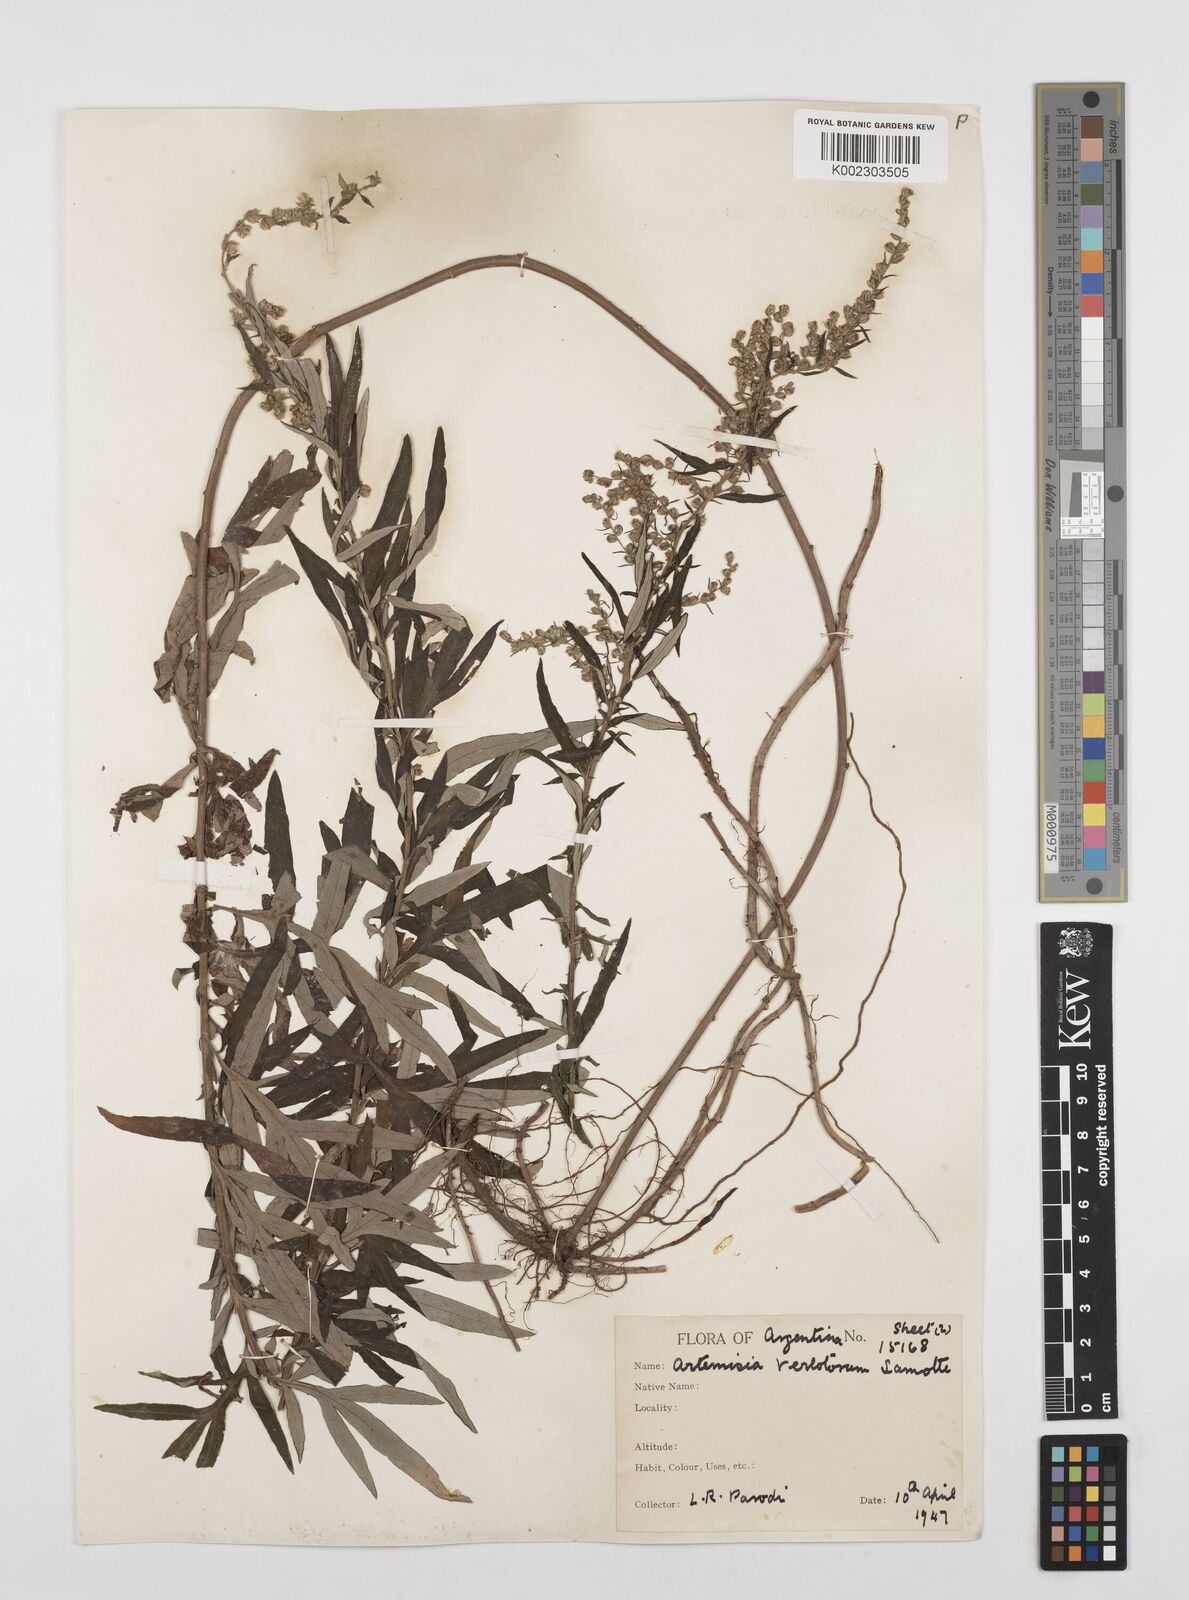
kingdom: Plantae
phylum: Tracheophyta
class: Magnoliopsida
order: Asterales
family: Asteraceae
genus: Artemisia
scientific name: Artemisia verlotiorum
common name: Chinese mugwort
